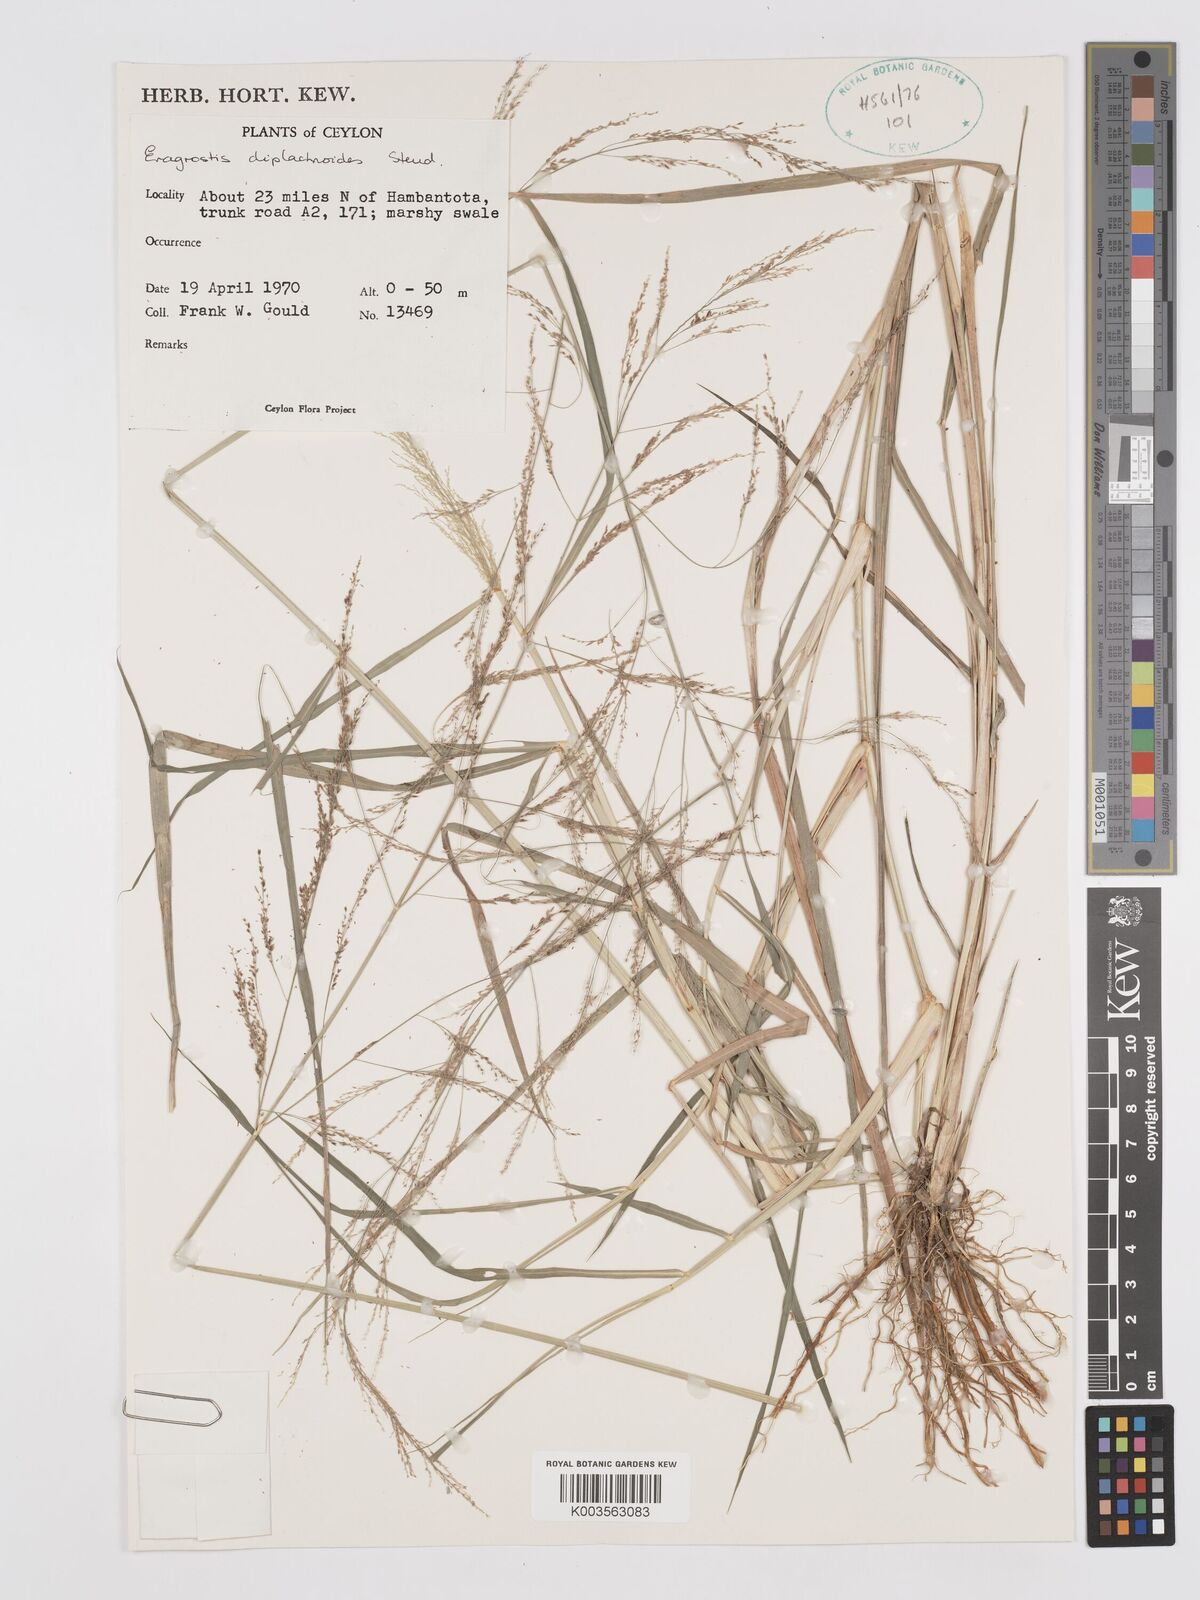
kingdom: Plantae
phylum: Tracheophyta
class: Liliopsida
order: Poales
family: Poaceae
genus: Eragrostis
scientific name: Eragrostis japonica
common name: Pond lovegrass
